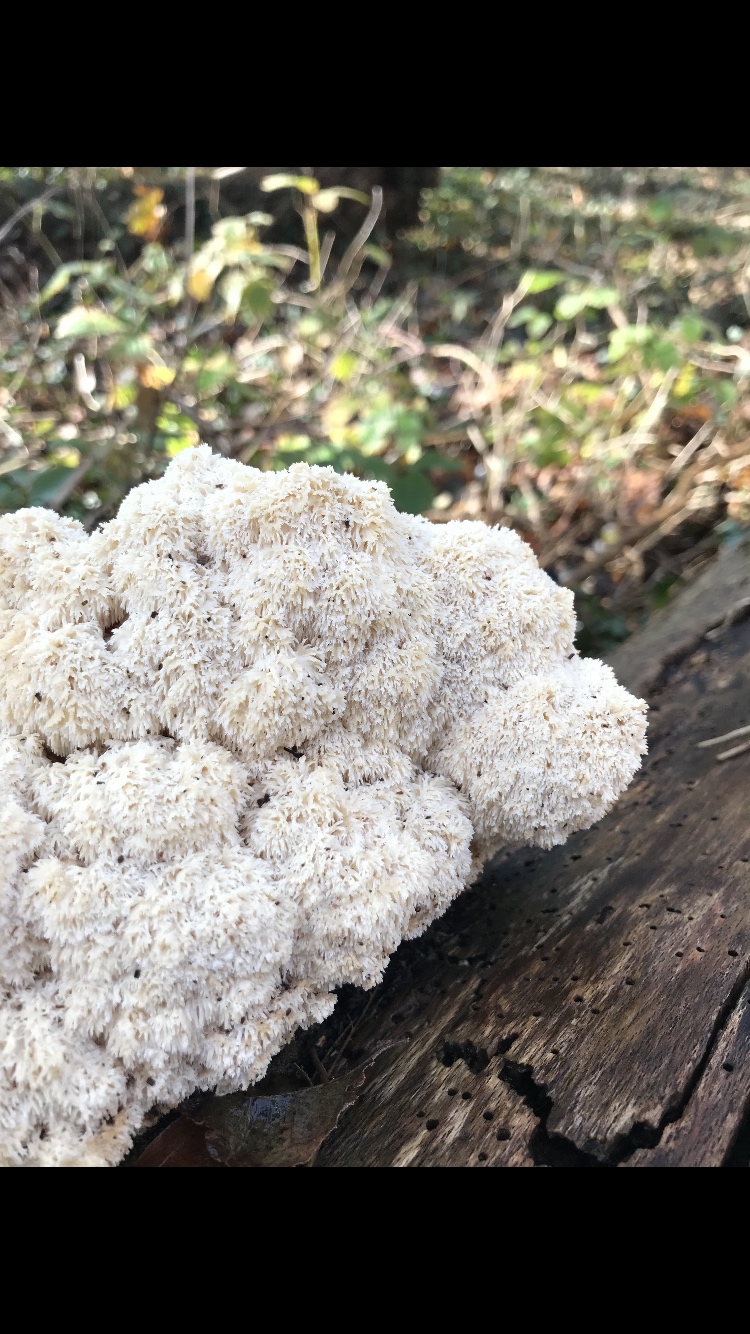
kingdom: Fungi
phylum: Basidiomycota
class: Agaricomycetes
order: Russulales
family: Hericiaceae
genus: Hericium
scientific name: Hericium coralloides
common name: koralpigsvamp
